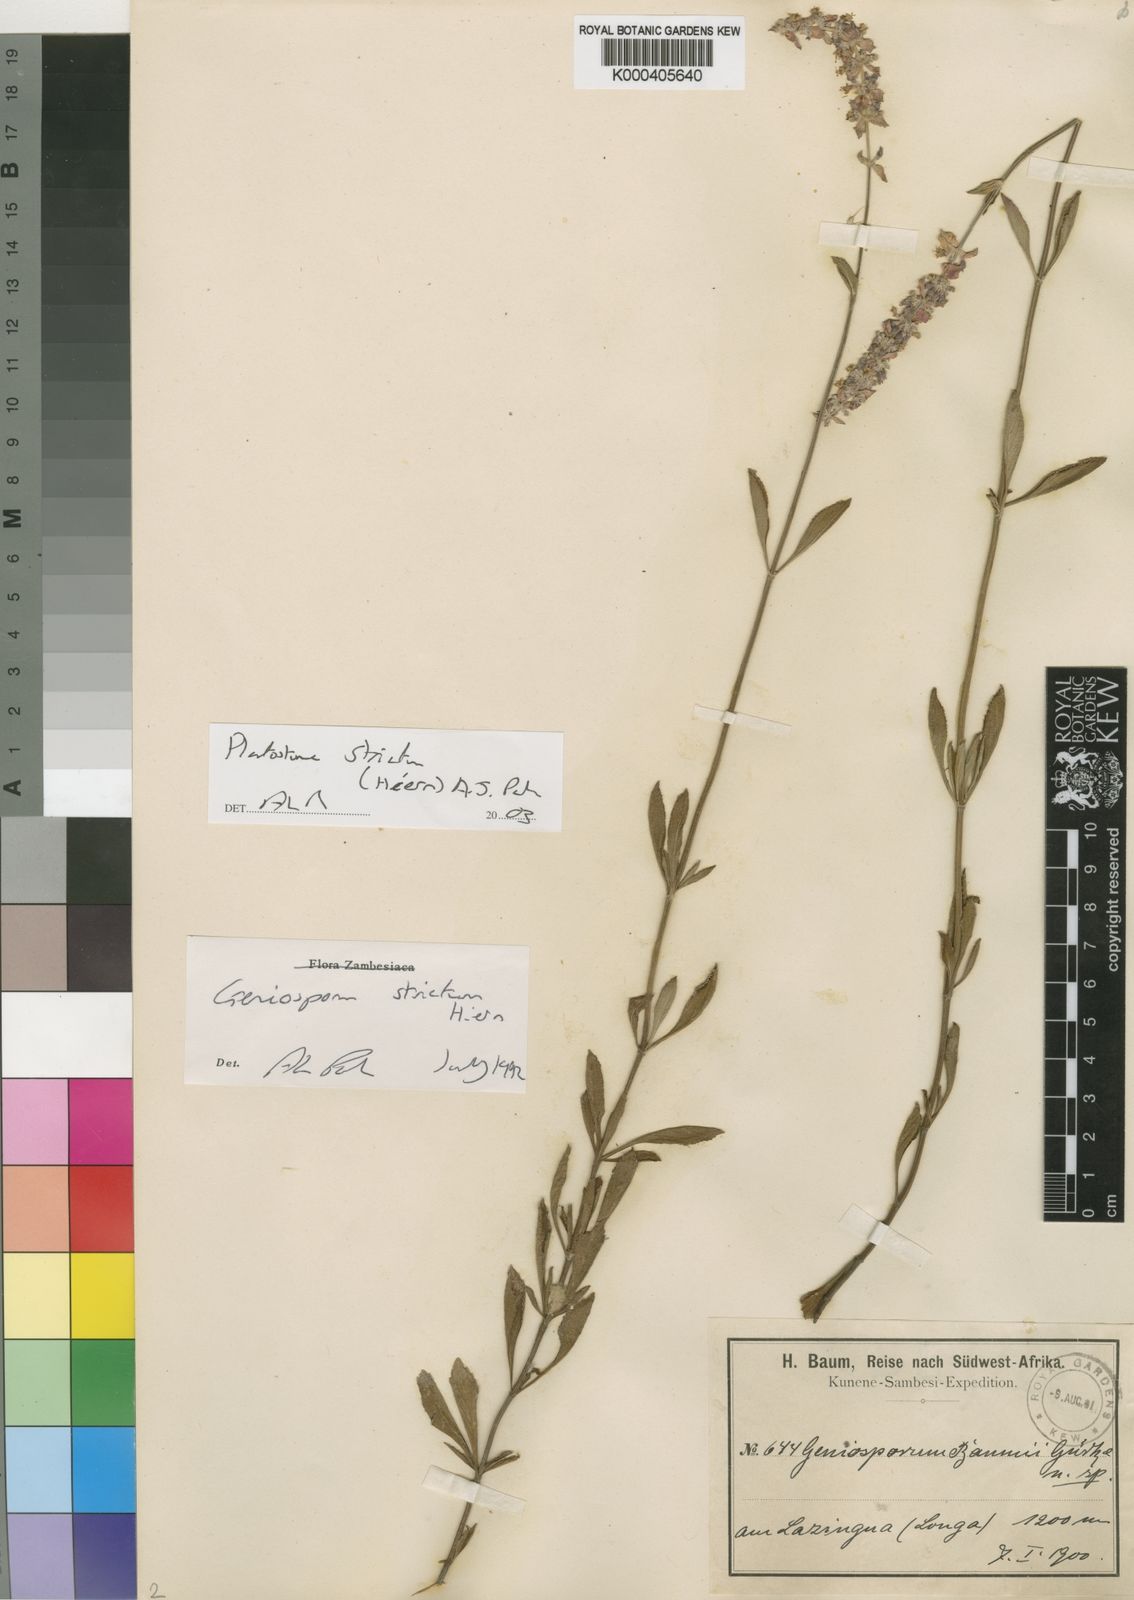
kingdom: Plantae
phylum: Tracheophyta
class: Magnoliopsida
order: Lamiales
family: Lamiaceae
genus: Platostoma
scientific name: Platostoma strictum
